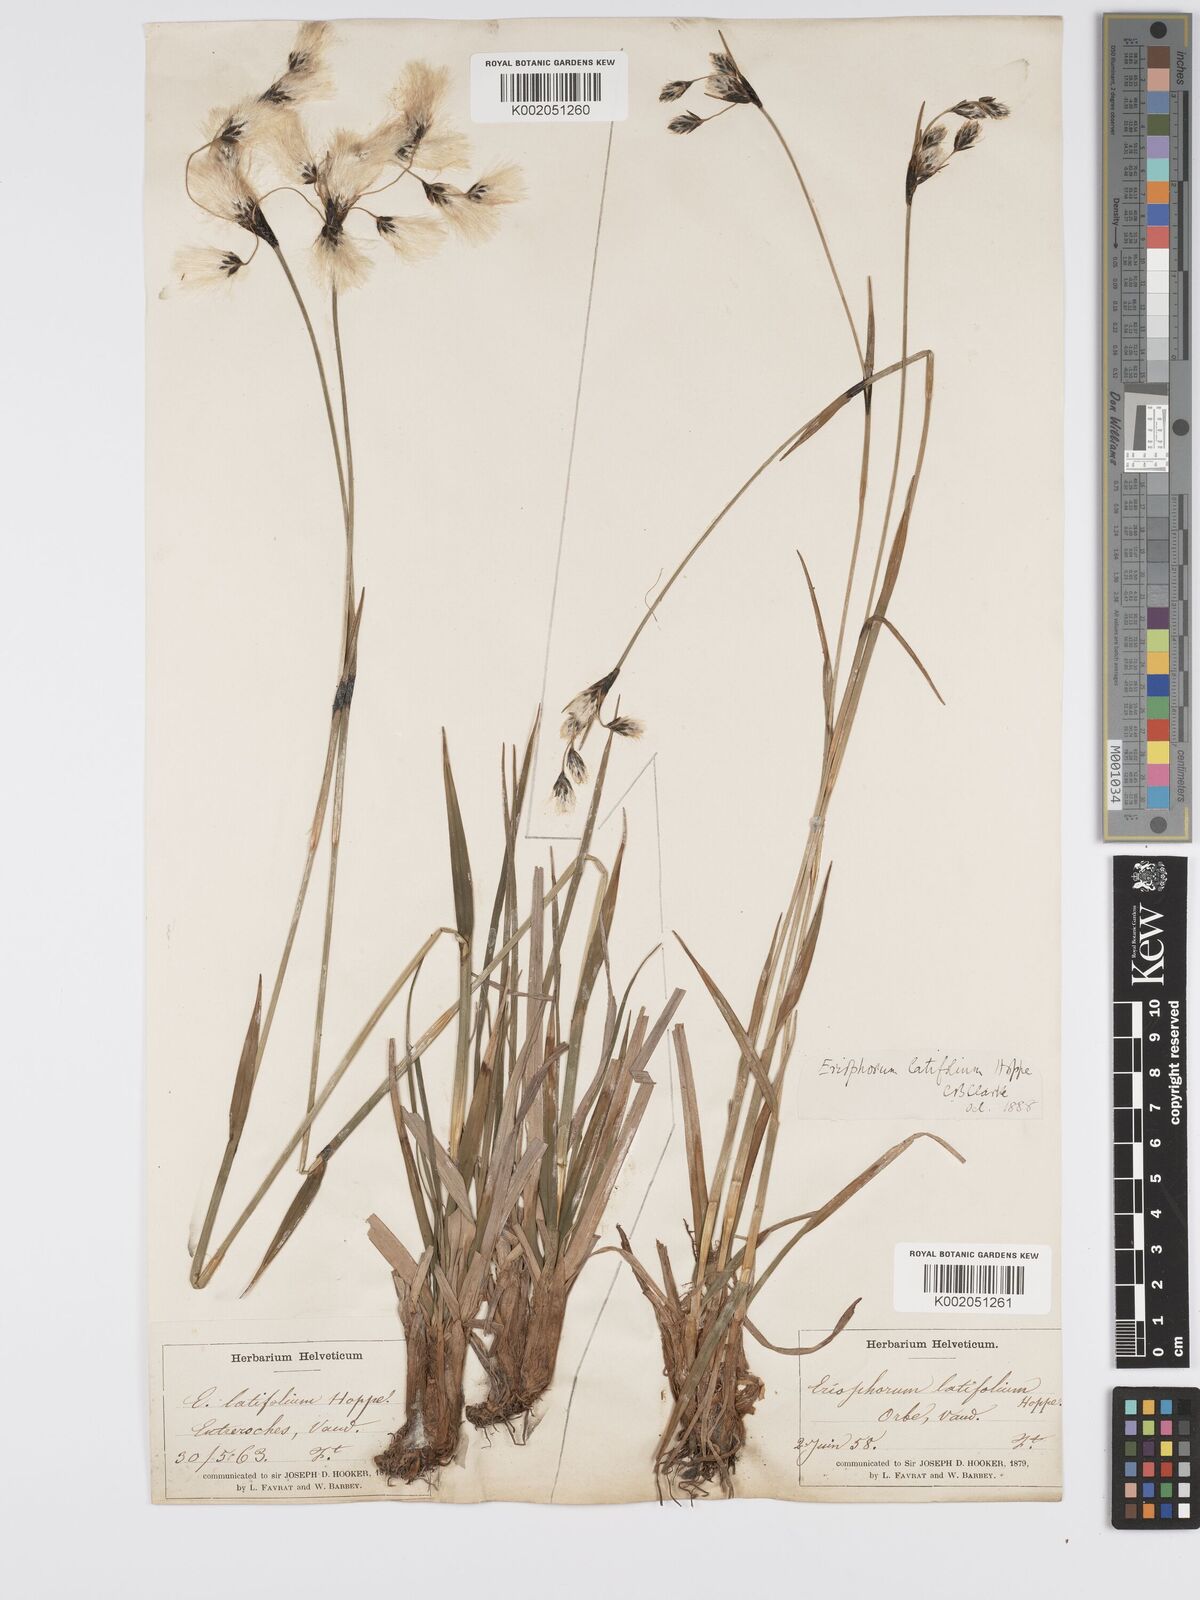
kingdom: Plantae
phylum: Tracheophyta
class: Liliopsida
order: Poales
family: Cyperaceae
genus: Eriophorum
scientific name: Eriophorum latifolium
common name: Broad-leaved cottongrass
